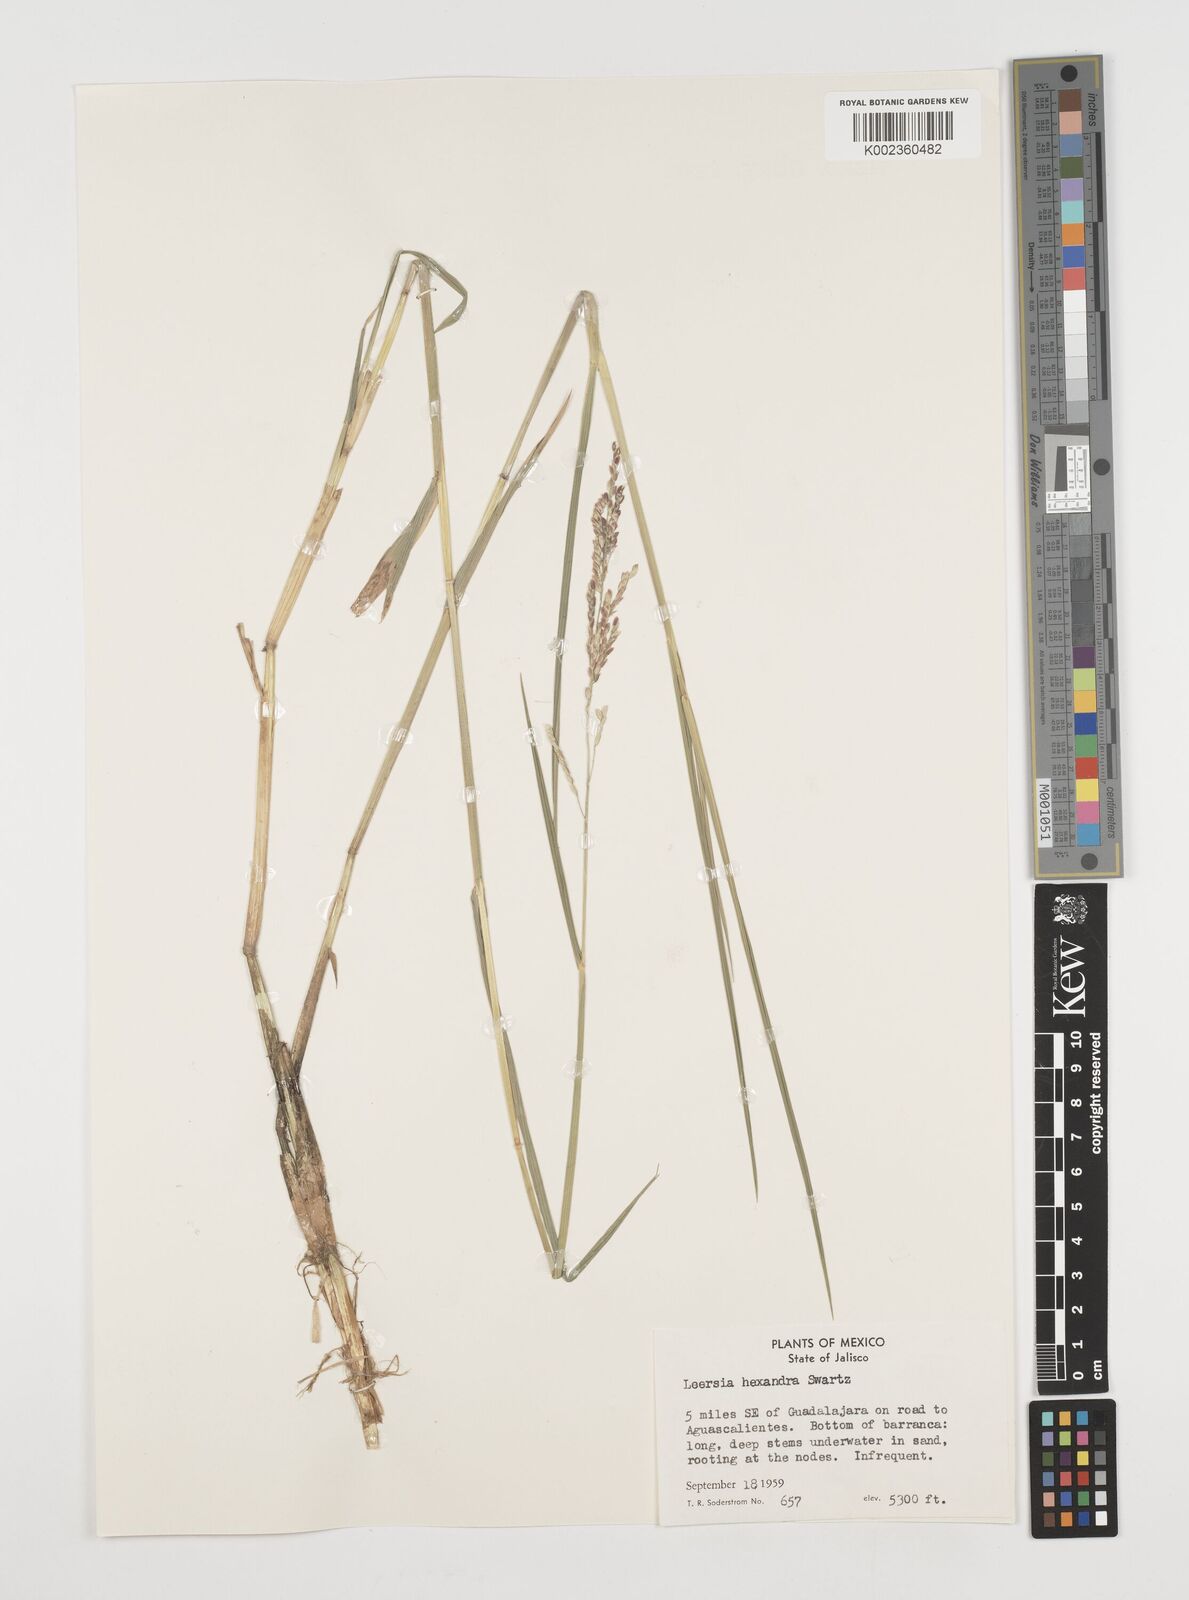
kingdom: Plantae
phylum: Tracheophyta
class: Liliopsida
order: Poales
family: Poaceae
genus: Leersia
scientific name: Leersia hexandra
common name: Southern cut grass
